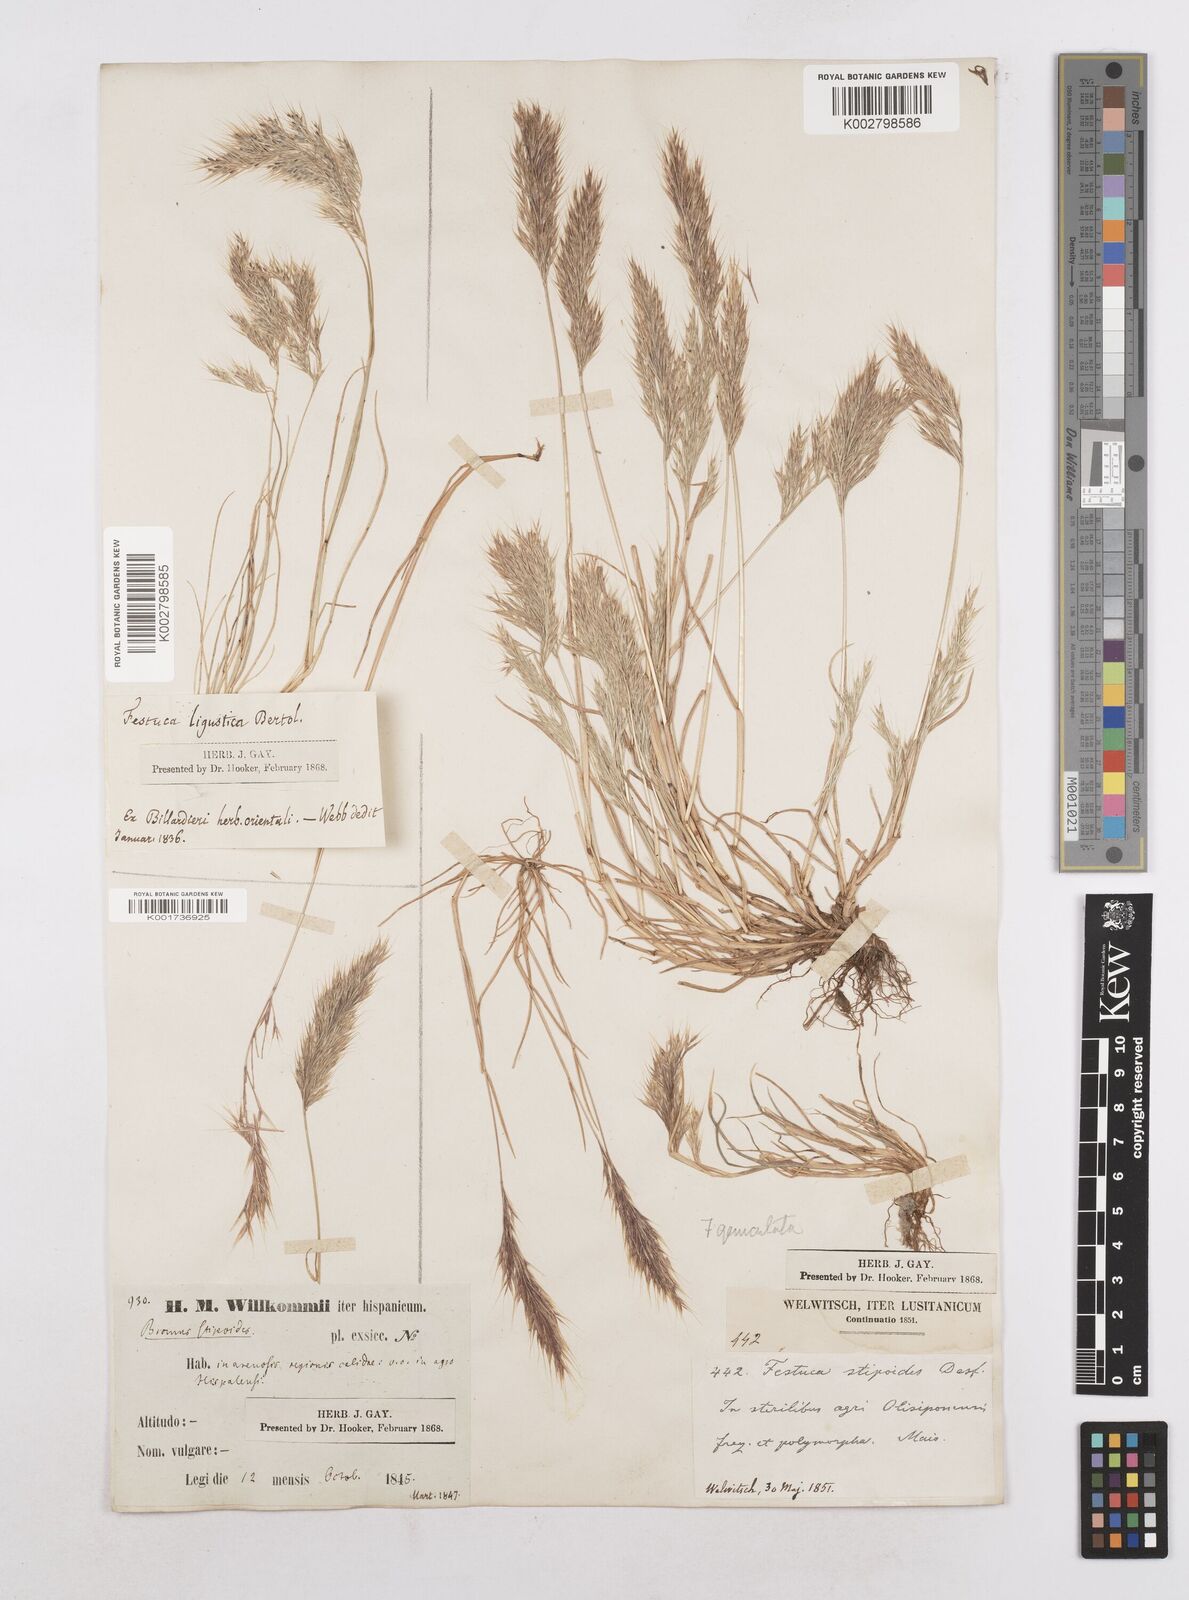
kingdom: Plantae
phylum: Tracheophyta
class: Liliopsida
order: Poales
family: Poaceae
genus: Festuca
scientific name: Festuca geniculata
